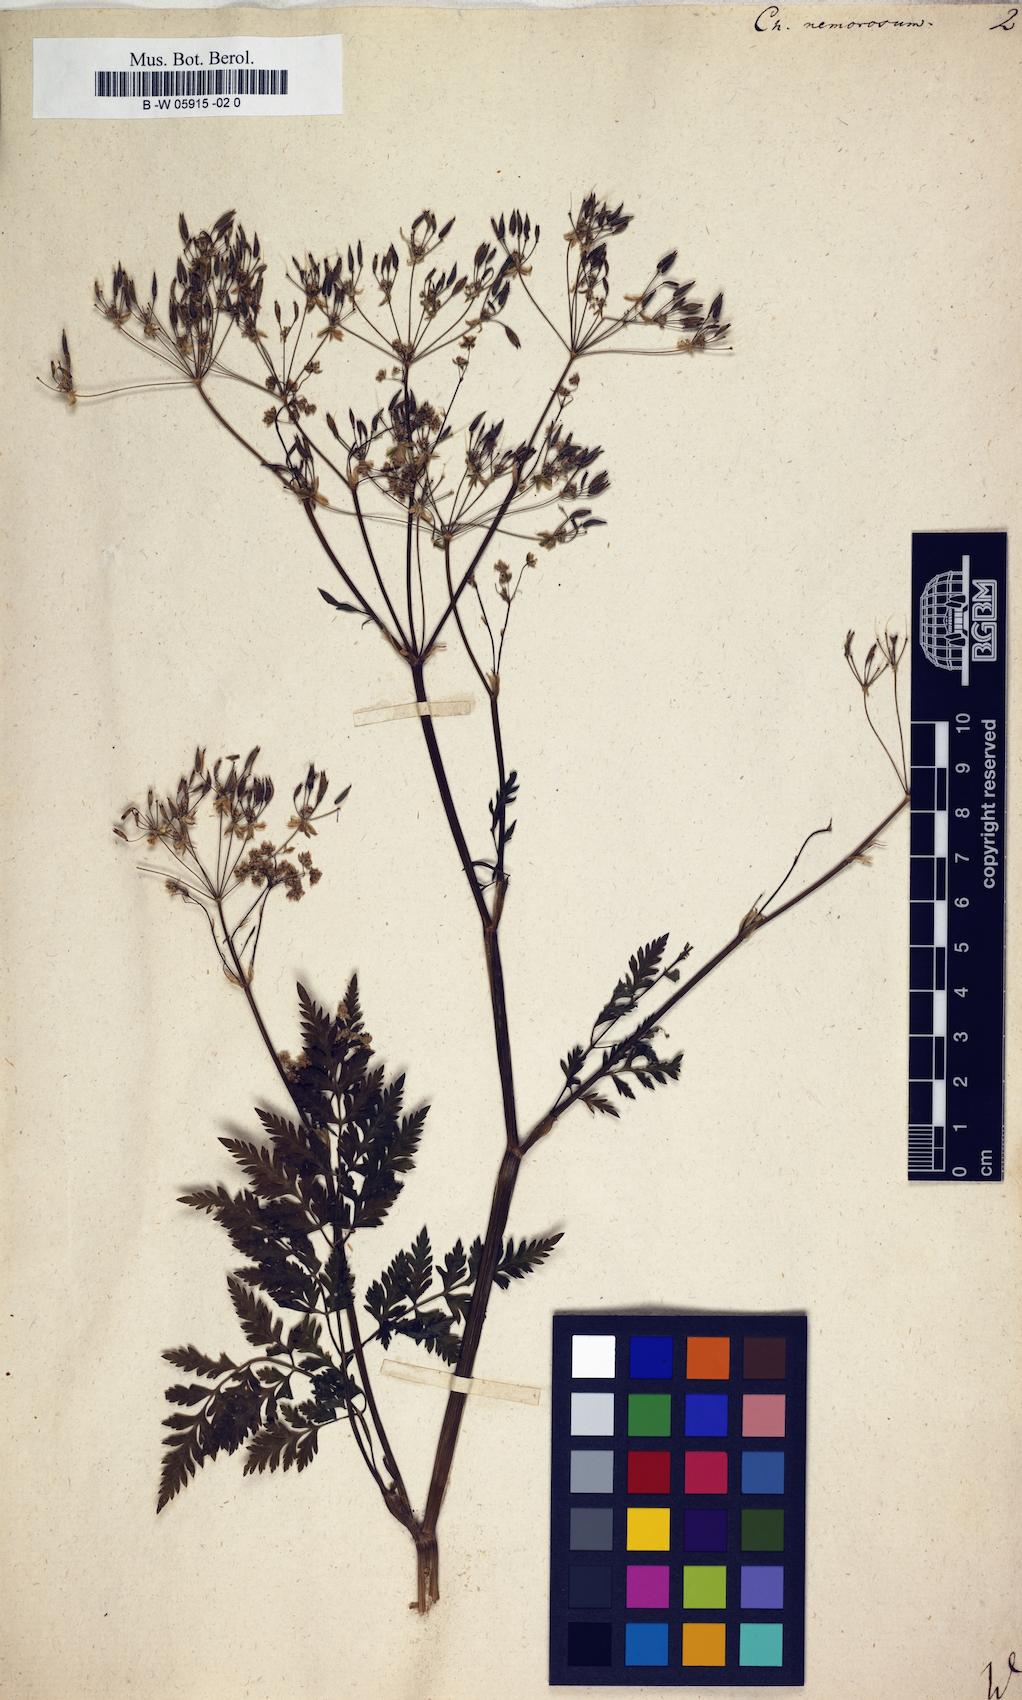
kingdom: Plantae
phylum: Tracheophyta
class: Magnoliopsida
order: Apiales
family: Apiaceae
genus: Anthriscus
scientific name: Anthriscus
